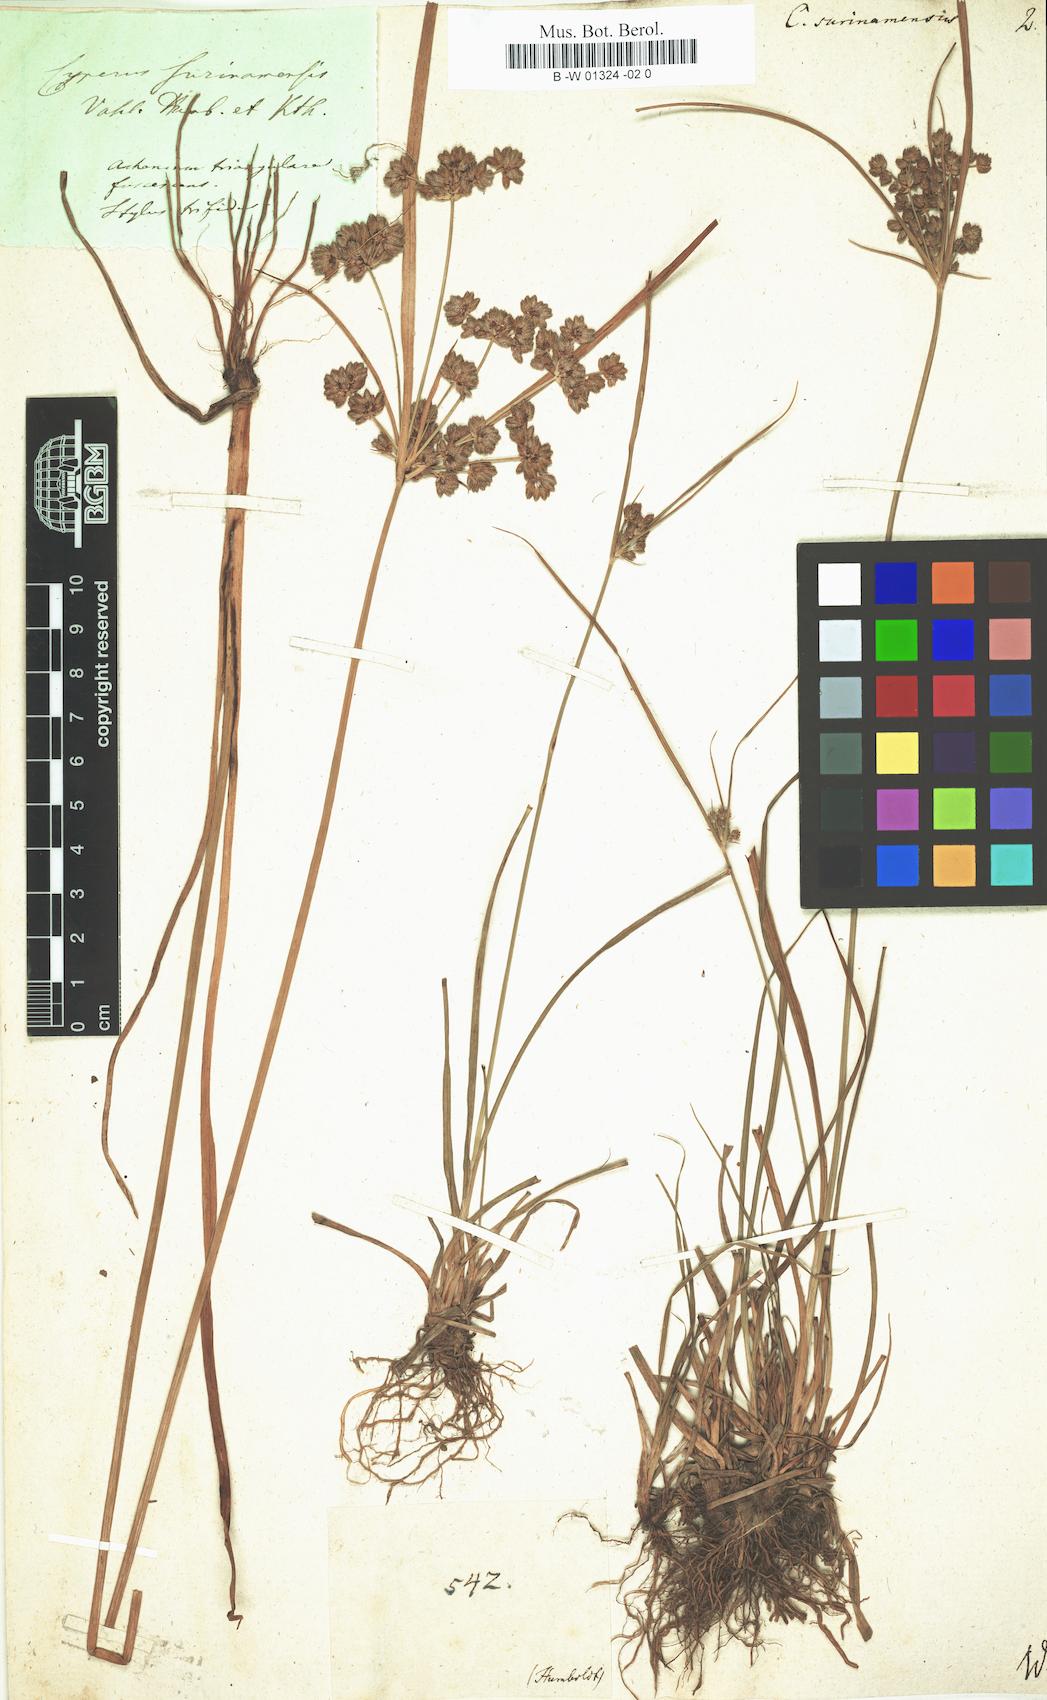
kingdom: Plantae
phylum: Tracheophyta
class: Liliopsida
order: Poales
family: Cyperaceae
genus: Cyperus
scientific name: Cyperus surinamensis
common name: Tropical flat sedge
